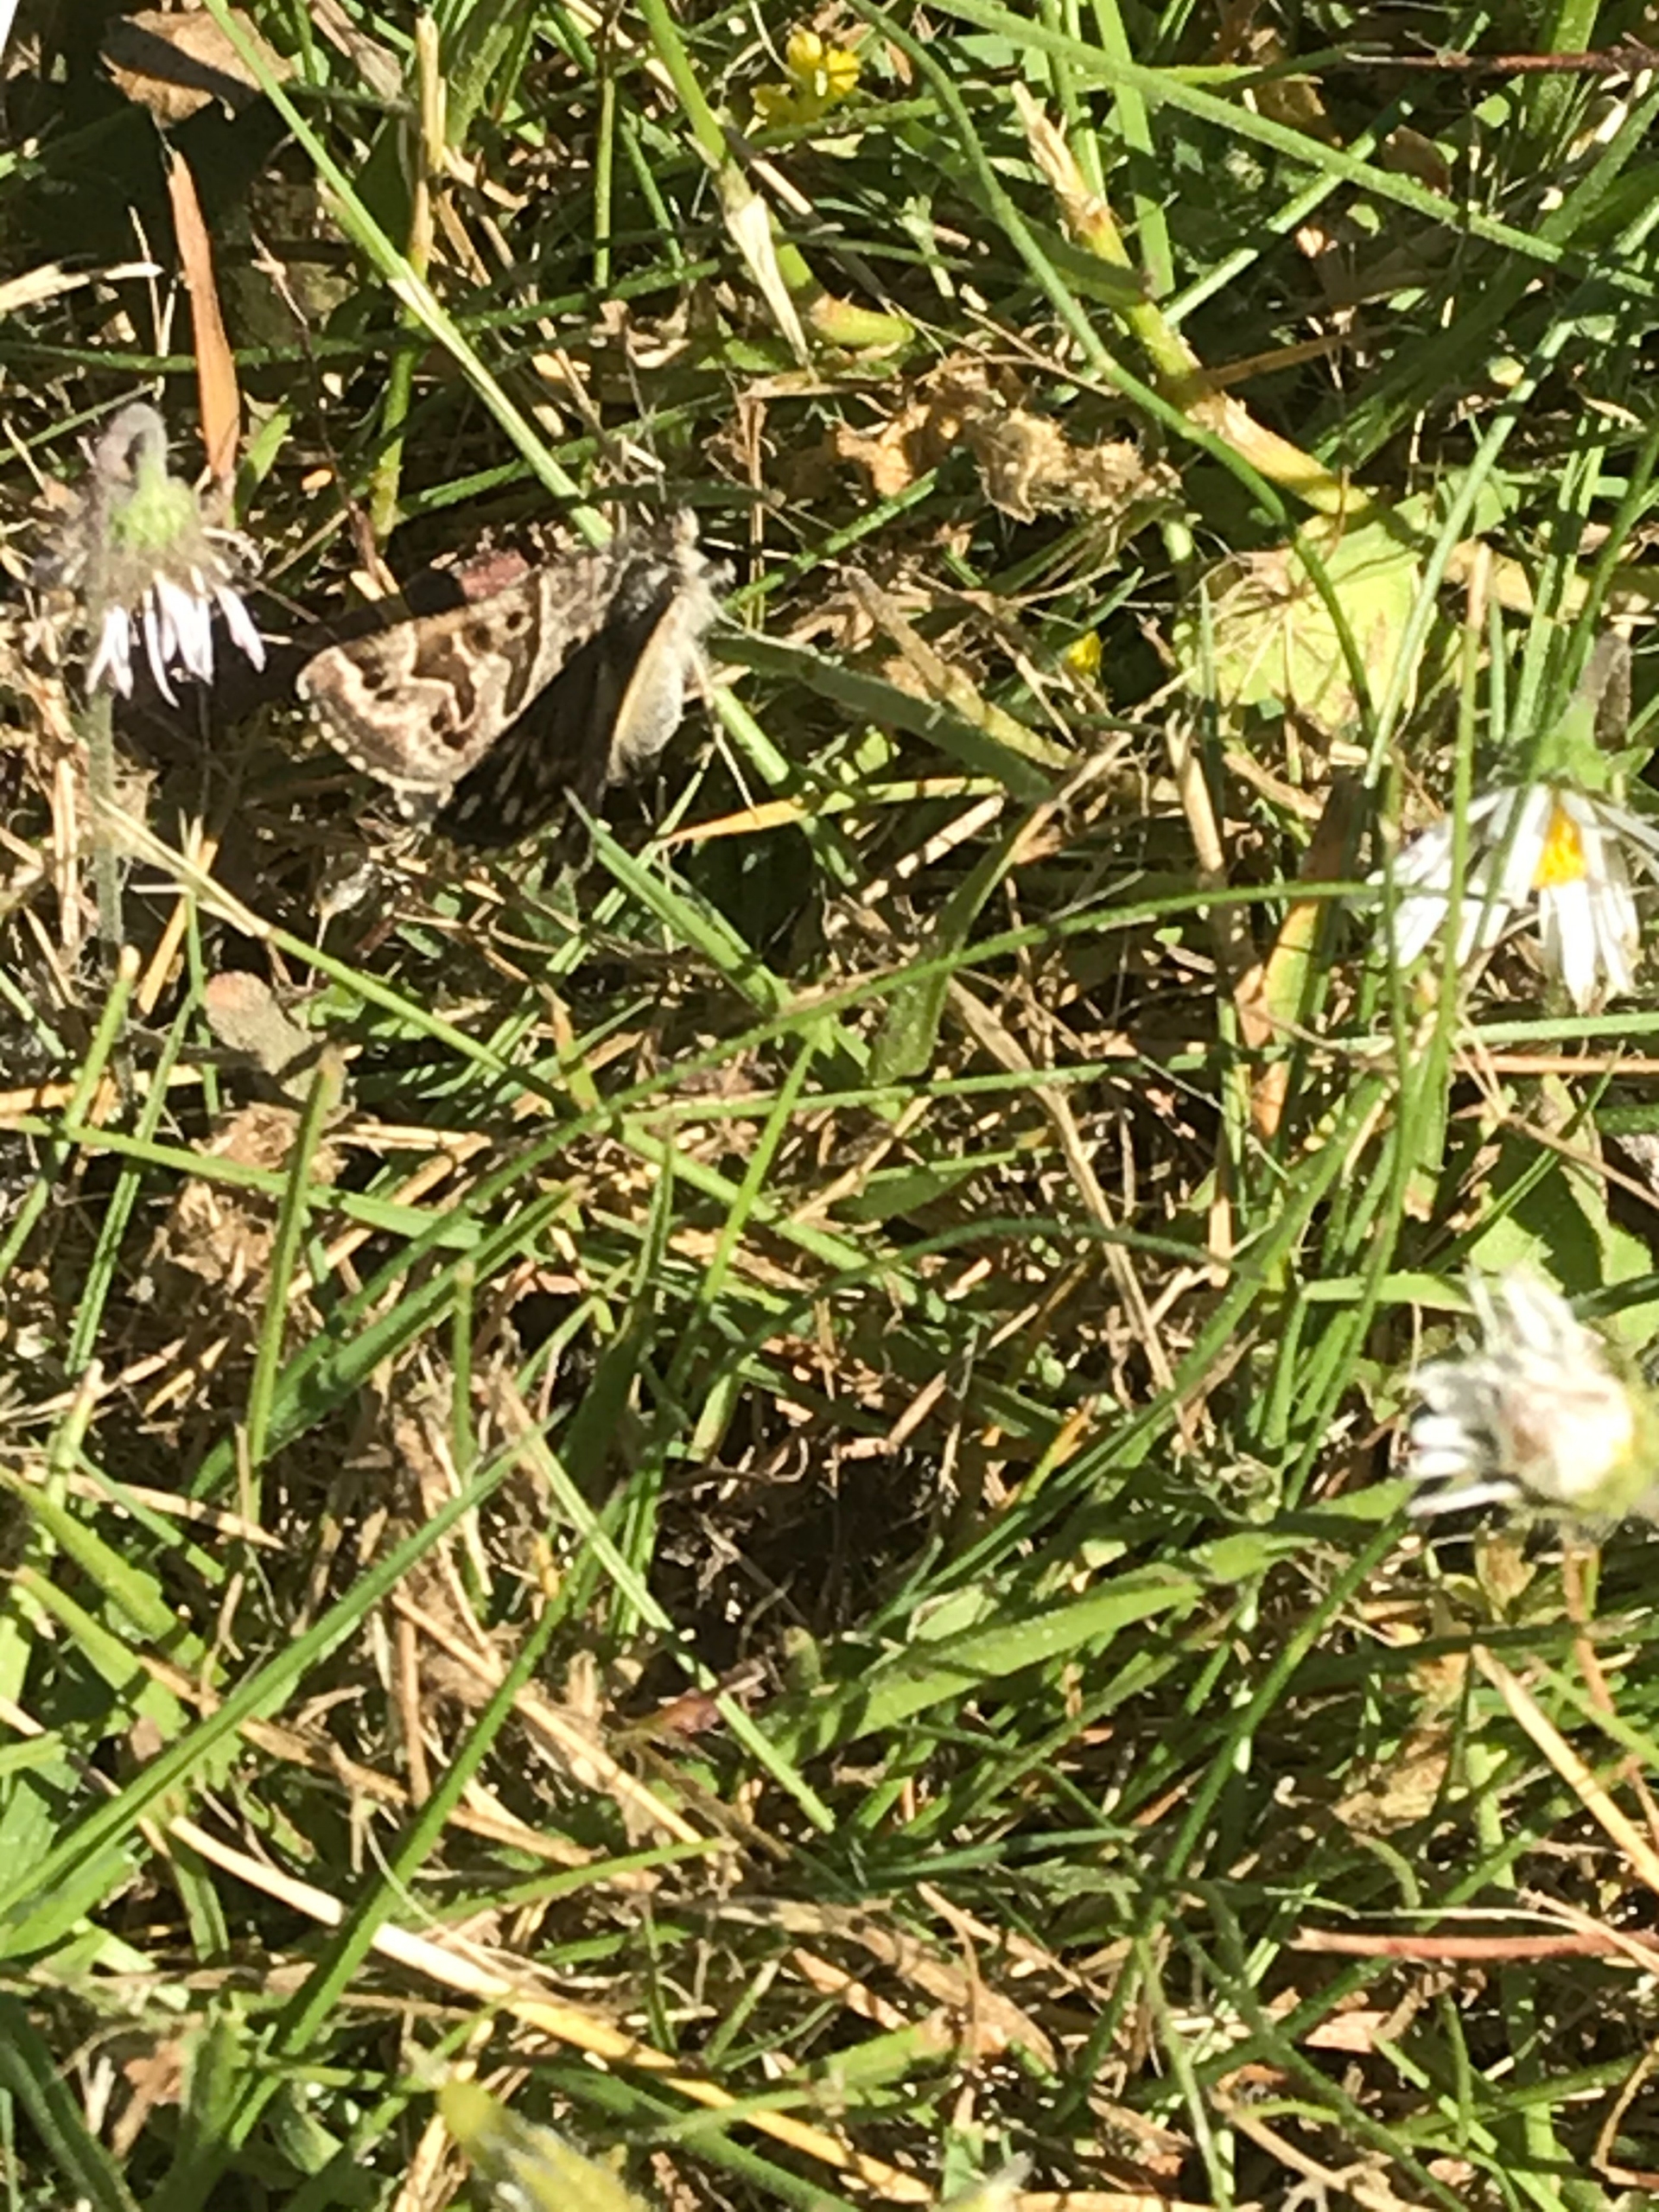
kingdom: Animalia
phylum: Arthropoda
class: Insecta
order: Lepidoptera
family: Erebidae
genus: Callistege
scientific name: Callistege mi
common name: Marmoreret kløverugle
